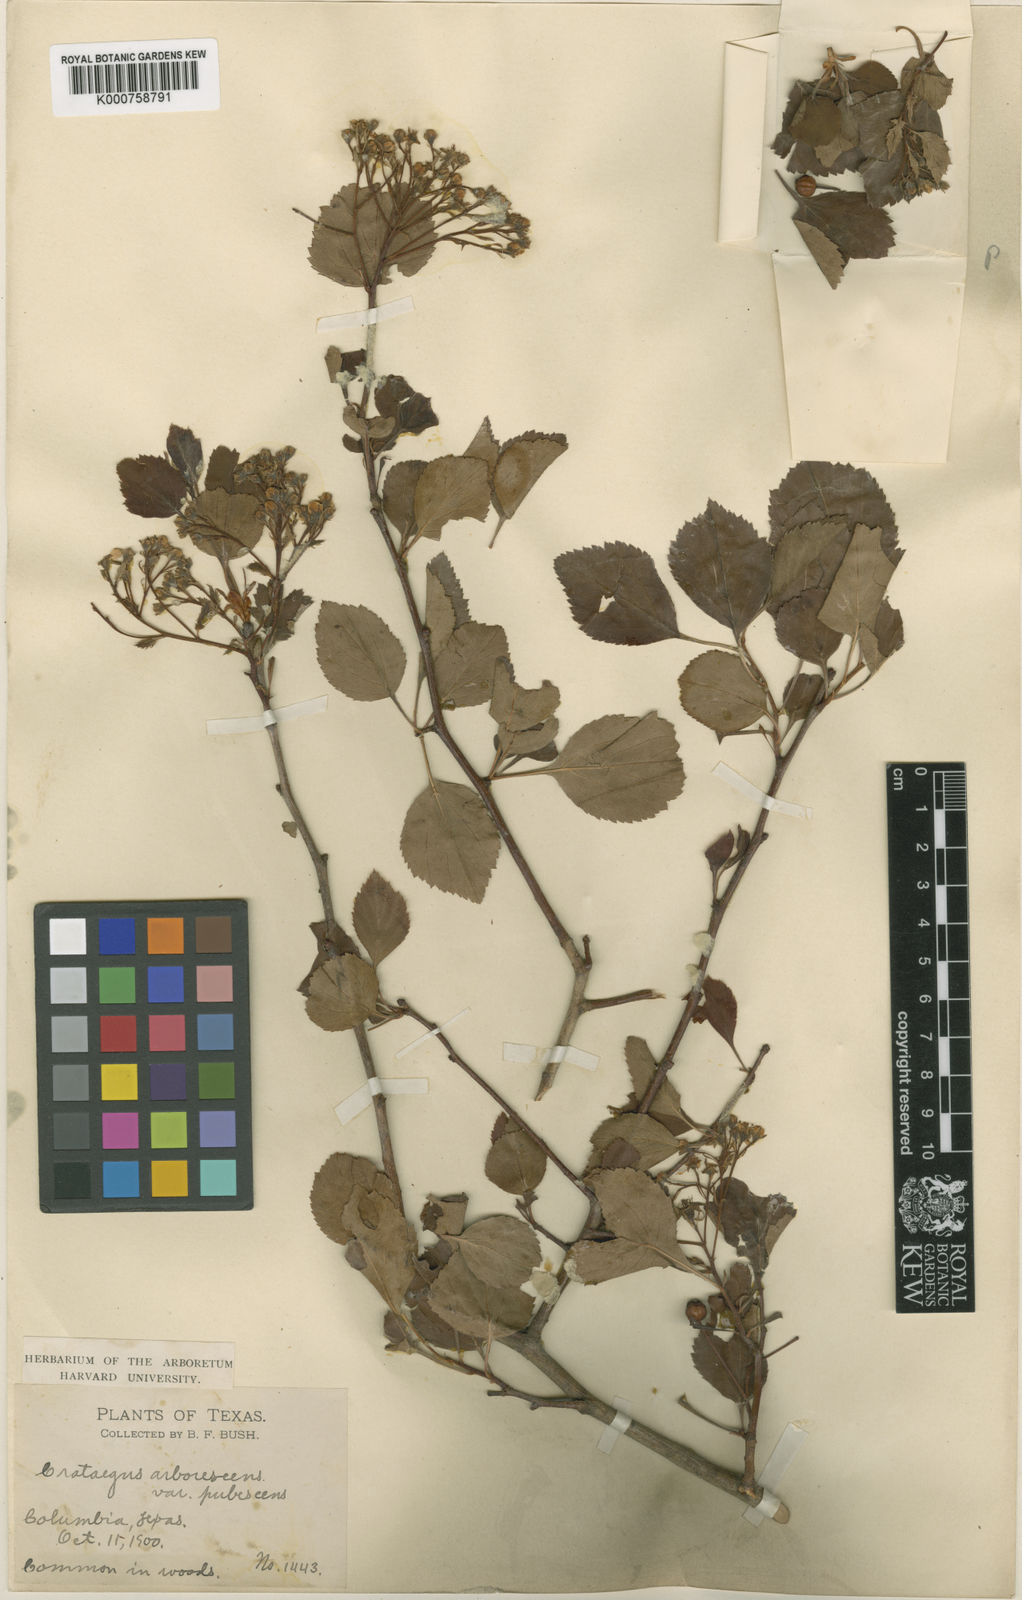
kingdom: Plantae
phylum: Tracheophyta
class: Magnoliopsida
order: Rosales
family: Rosaceae
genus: Crataegus
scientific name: Crataegus viridis
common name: Southernthorn
